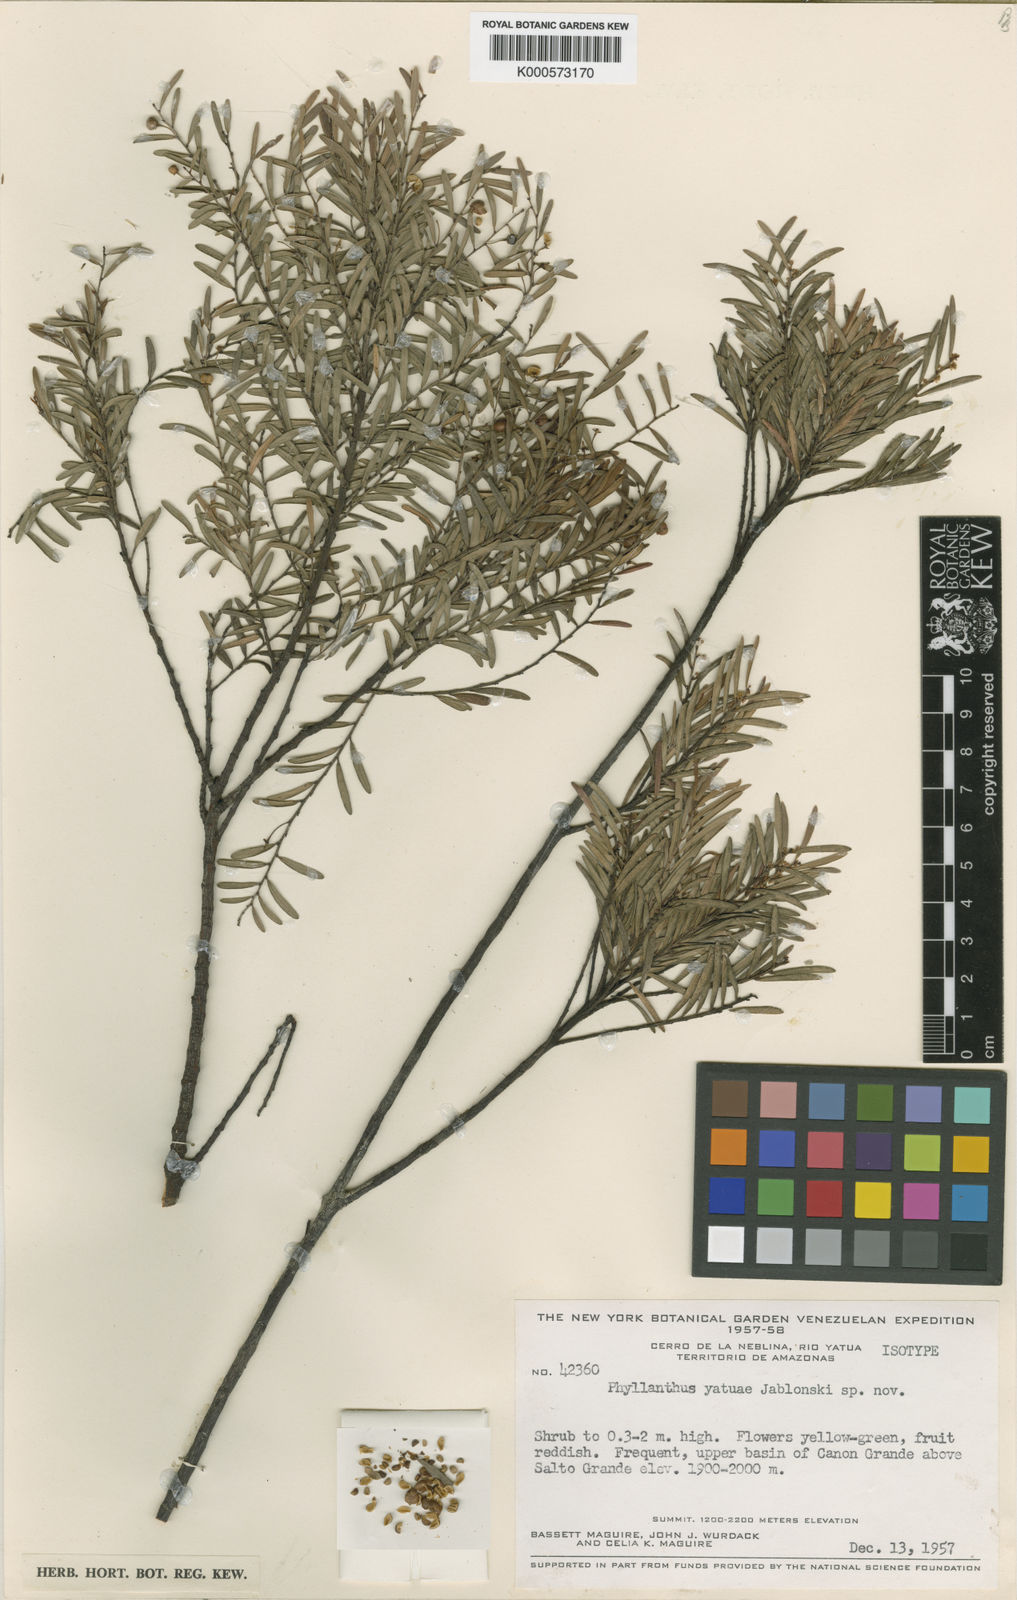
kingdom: Plantae
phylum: Tracheophyta
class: Magnoliopsida
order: Malpighiales
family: Phyllanthaceae
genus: Phyllanthus
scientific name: Phyllanthus
